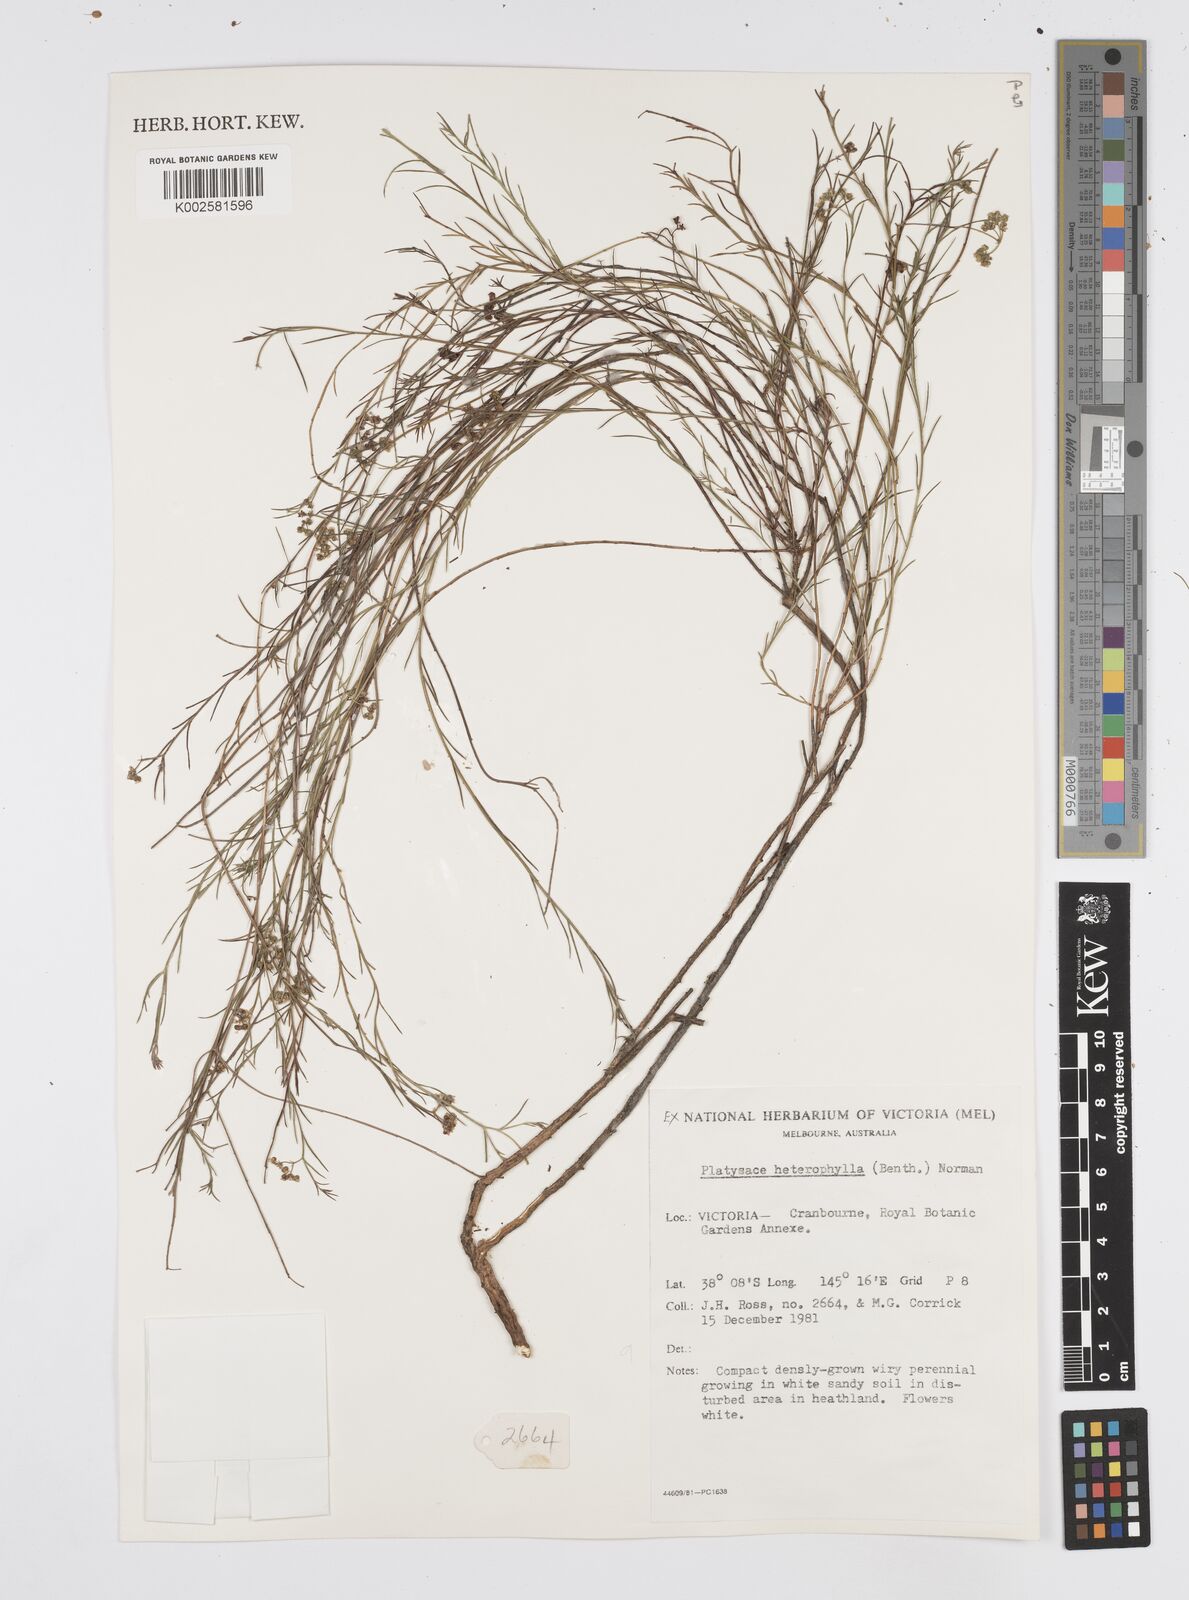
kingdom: Plantae
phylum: Tracheophyta
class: Magnoliopsida
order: Apiales
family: Apiaceae
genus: Platysace
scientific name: Platysace heterophylla
